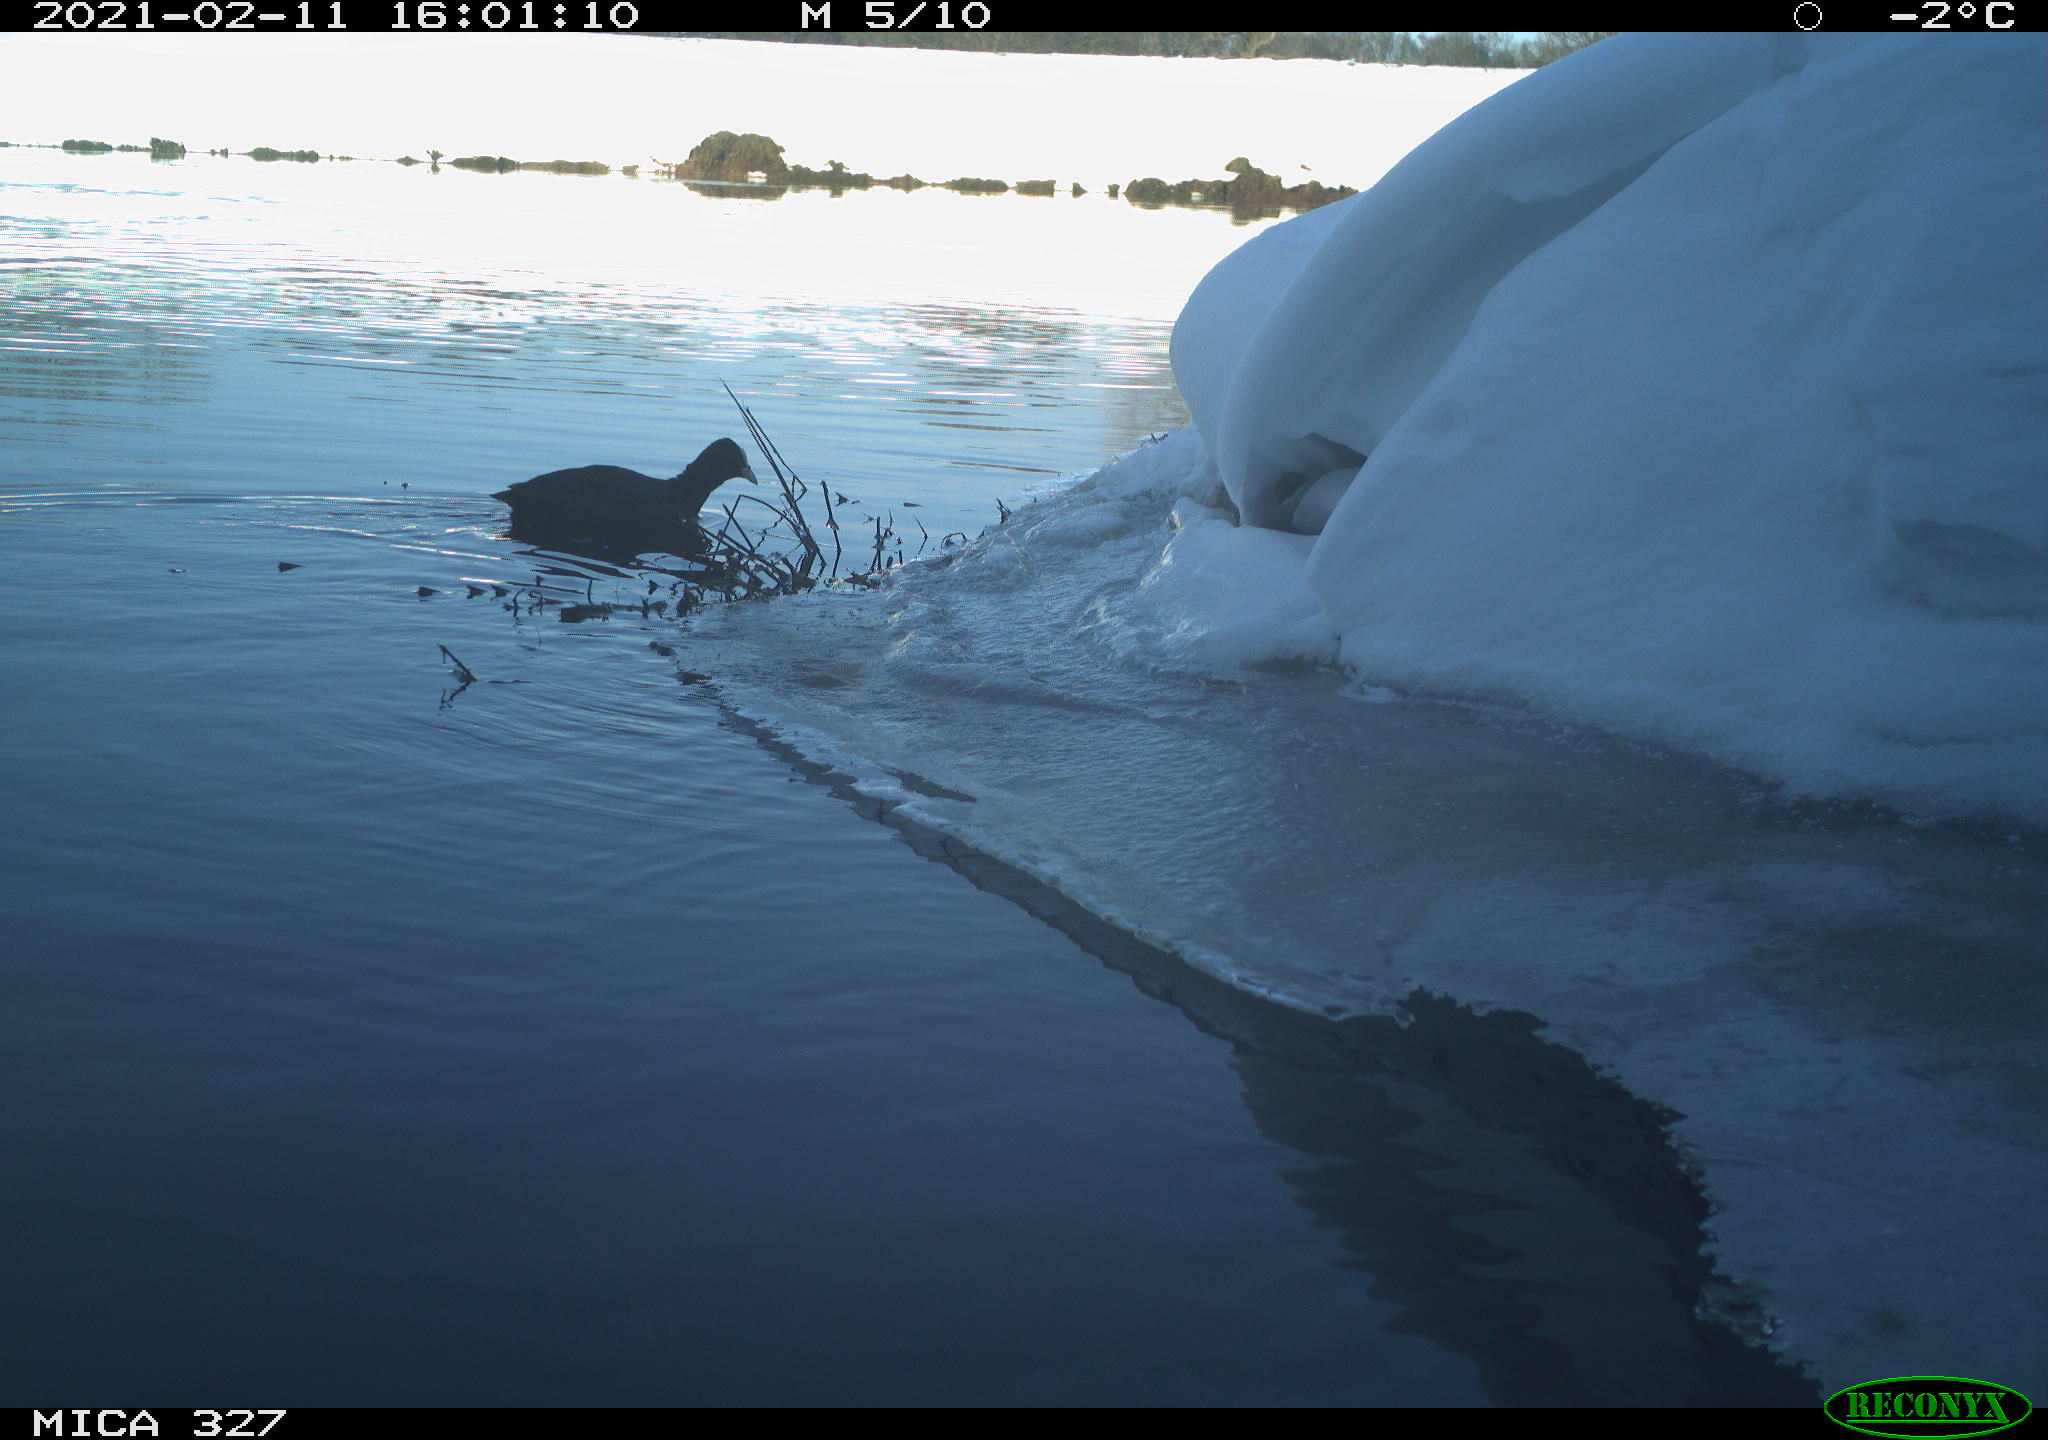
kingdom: Animalia
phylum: Chordata
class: Aves
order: Gruiformes
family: Rallidae
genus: Fulica
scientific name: Fulica atra
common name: Eurasian coot
